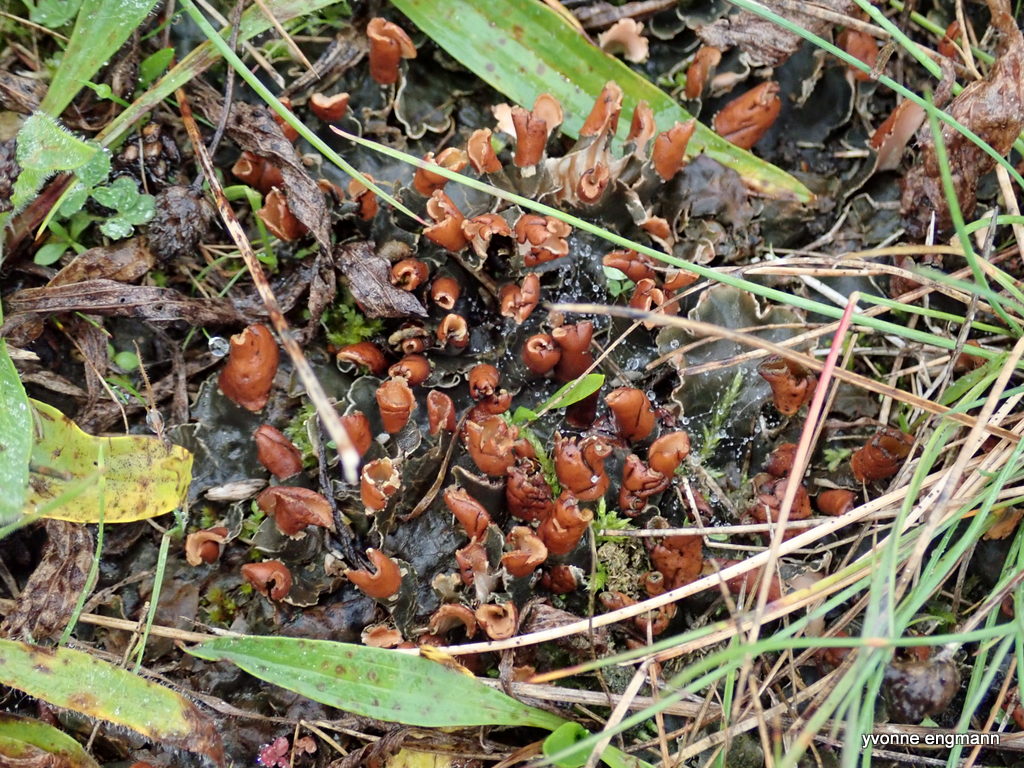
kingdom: Fungi
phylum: Ascomycota
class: Lecanoromycetes
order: Peltigerales
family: Peltigeraceae
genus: Peltigera
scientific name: Peltigera didactyla
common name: liden skjoldlav
